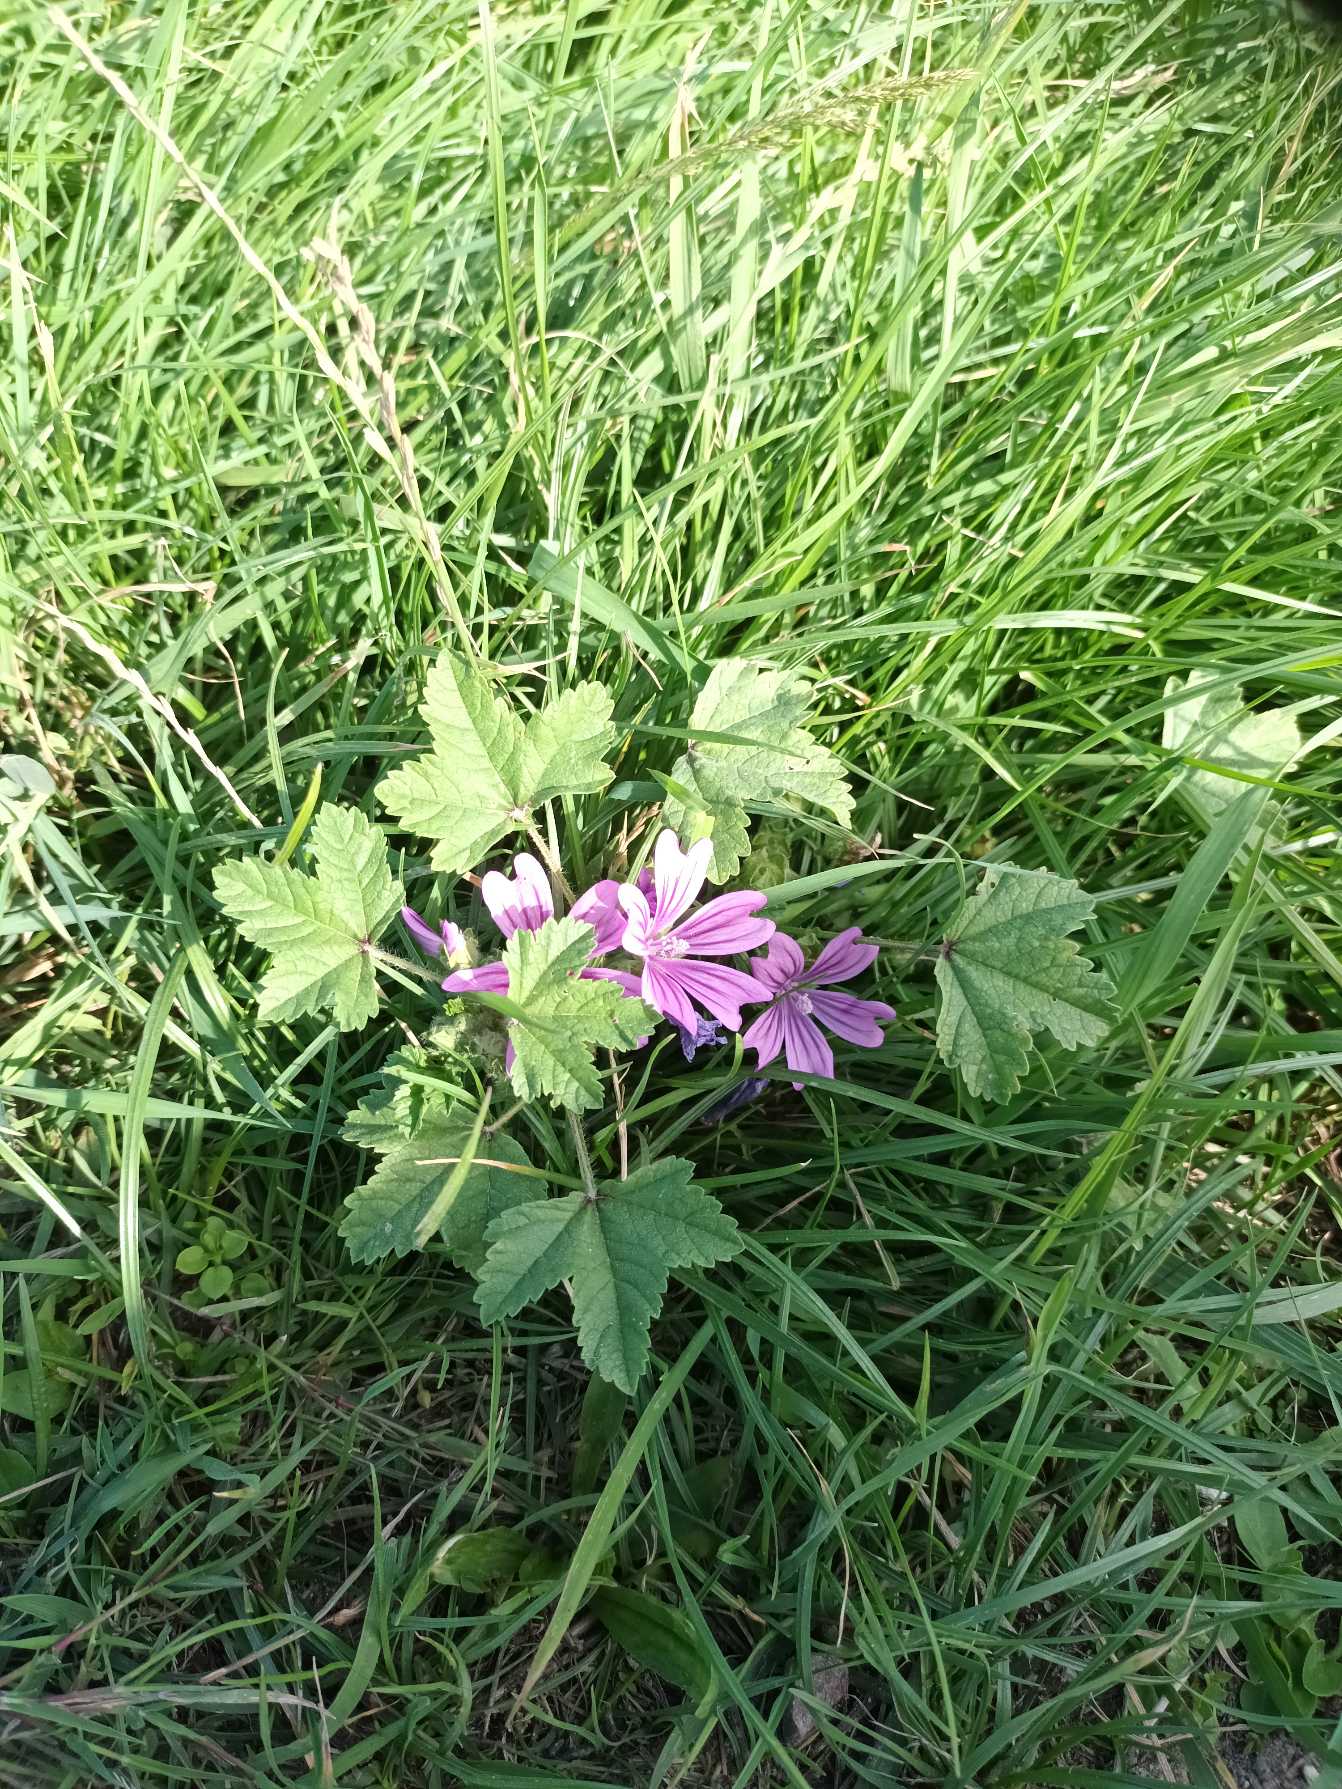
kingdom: Plantae
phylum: Tracheophyta
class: Magnoliopsida
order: Malvales
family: Malvaceae
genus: Malva
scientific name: Malva sylvestris
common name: Almindelig katost
